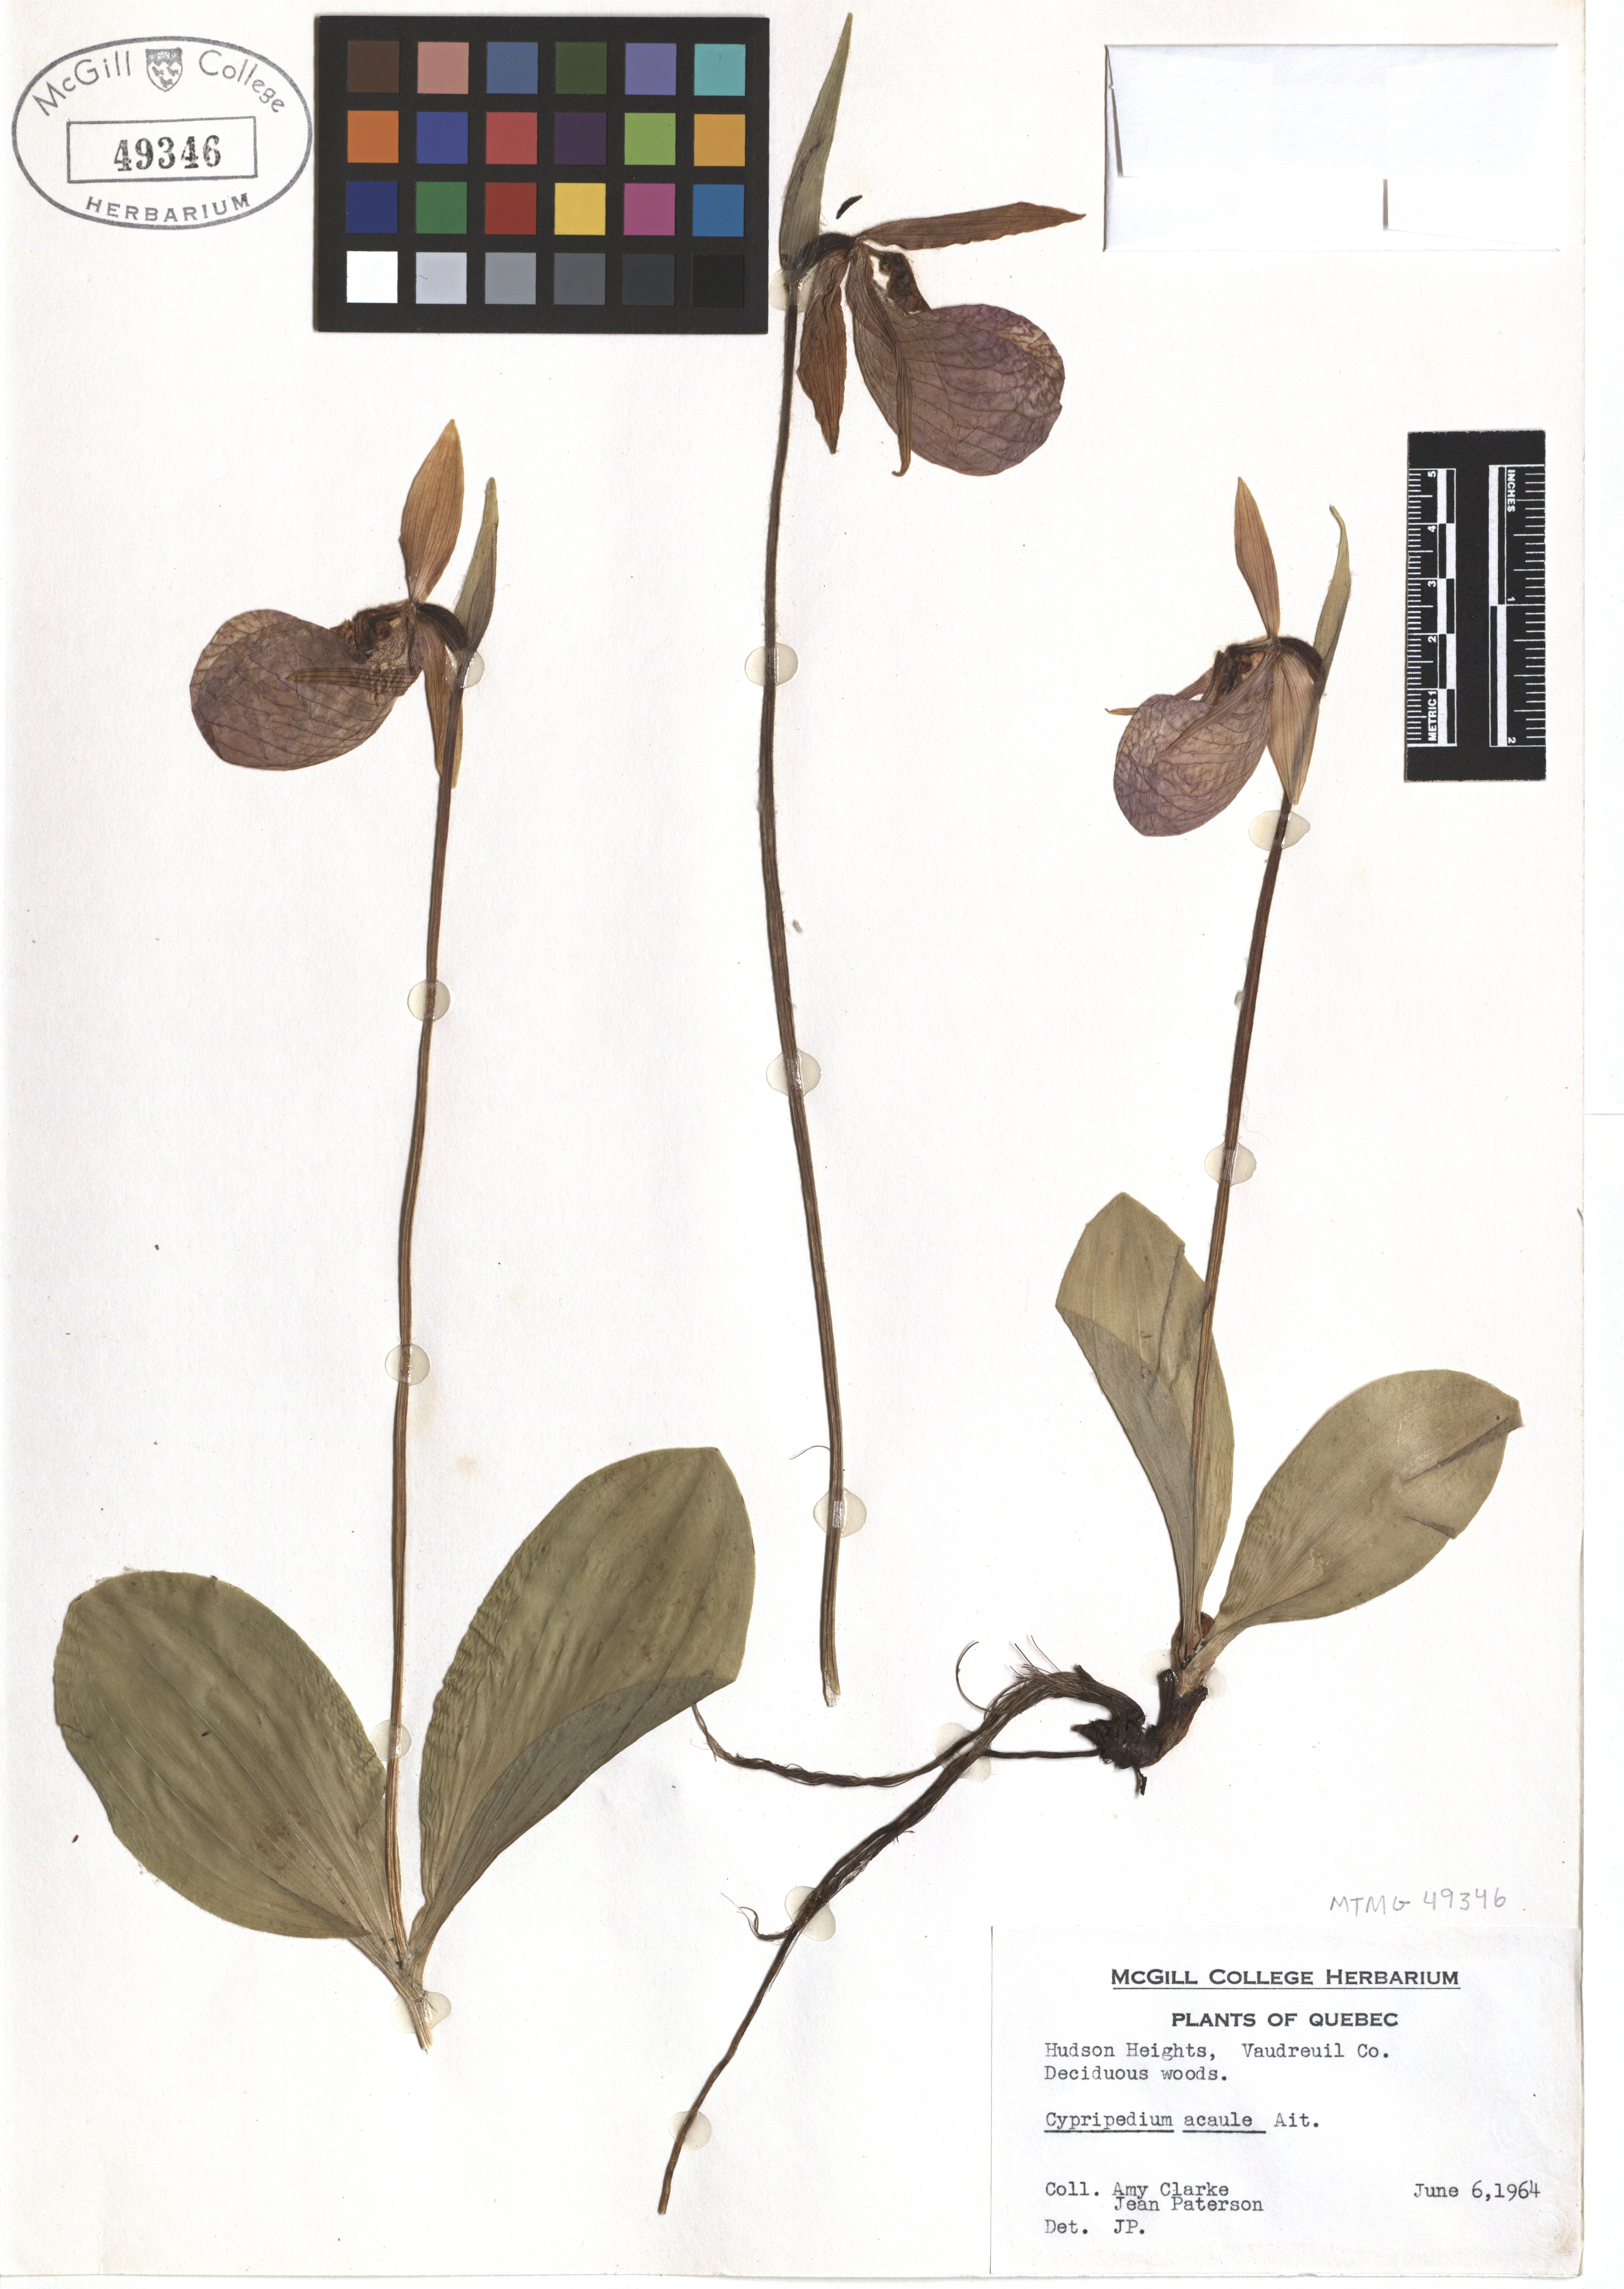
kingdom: Plantae
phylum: Tracheophyta
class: Liliopsida
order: Asparagales
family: Orchidaceae
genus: Cypripedium
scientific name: Cypripedium acaule
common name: Pink lady's-slipper
